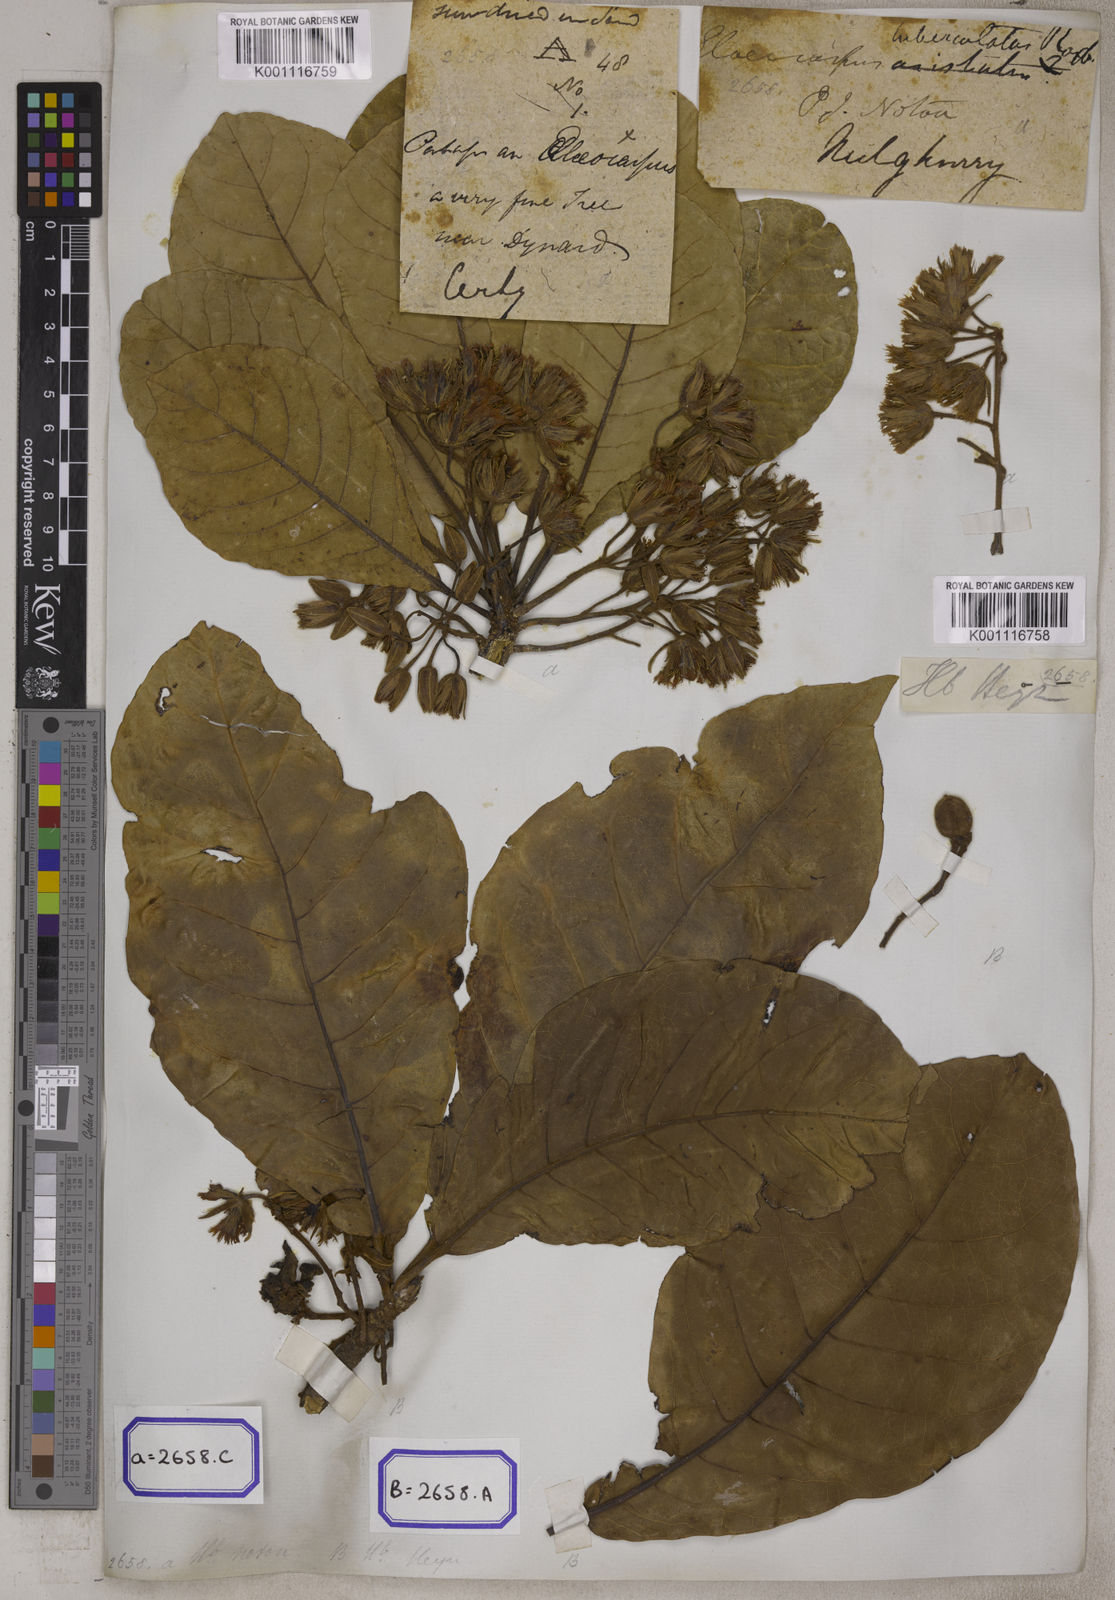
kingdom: Plantae
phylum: Tracheophyta
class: Magnoliopsida
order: Oxalidales
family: Elaeocarpaceae
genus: Elaeocarpus
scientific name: Elaeocarpus tuberculatus
